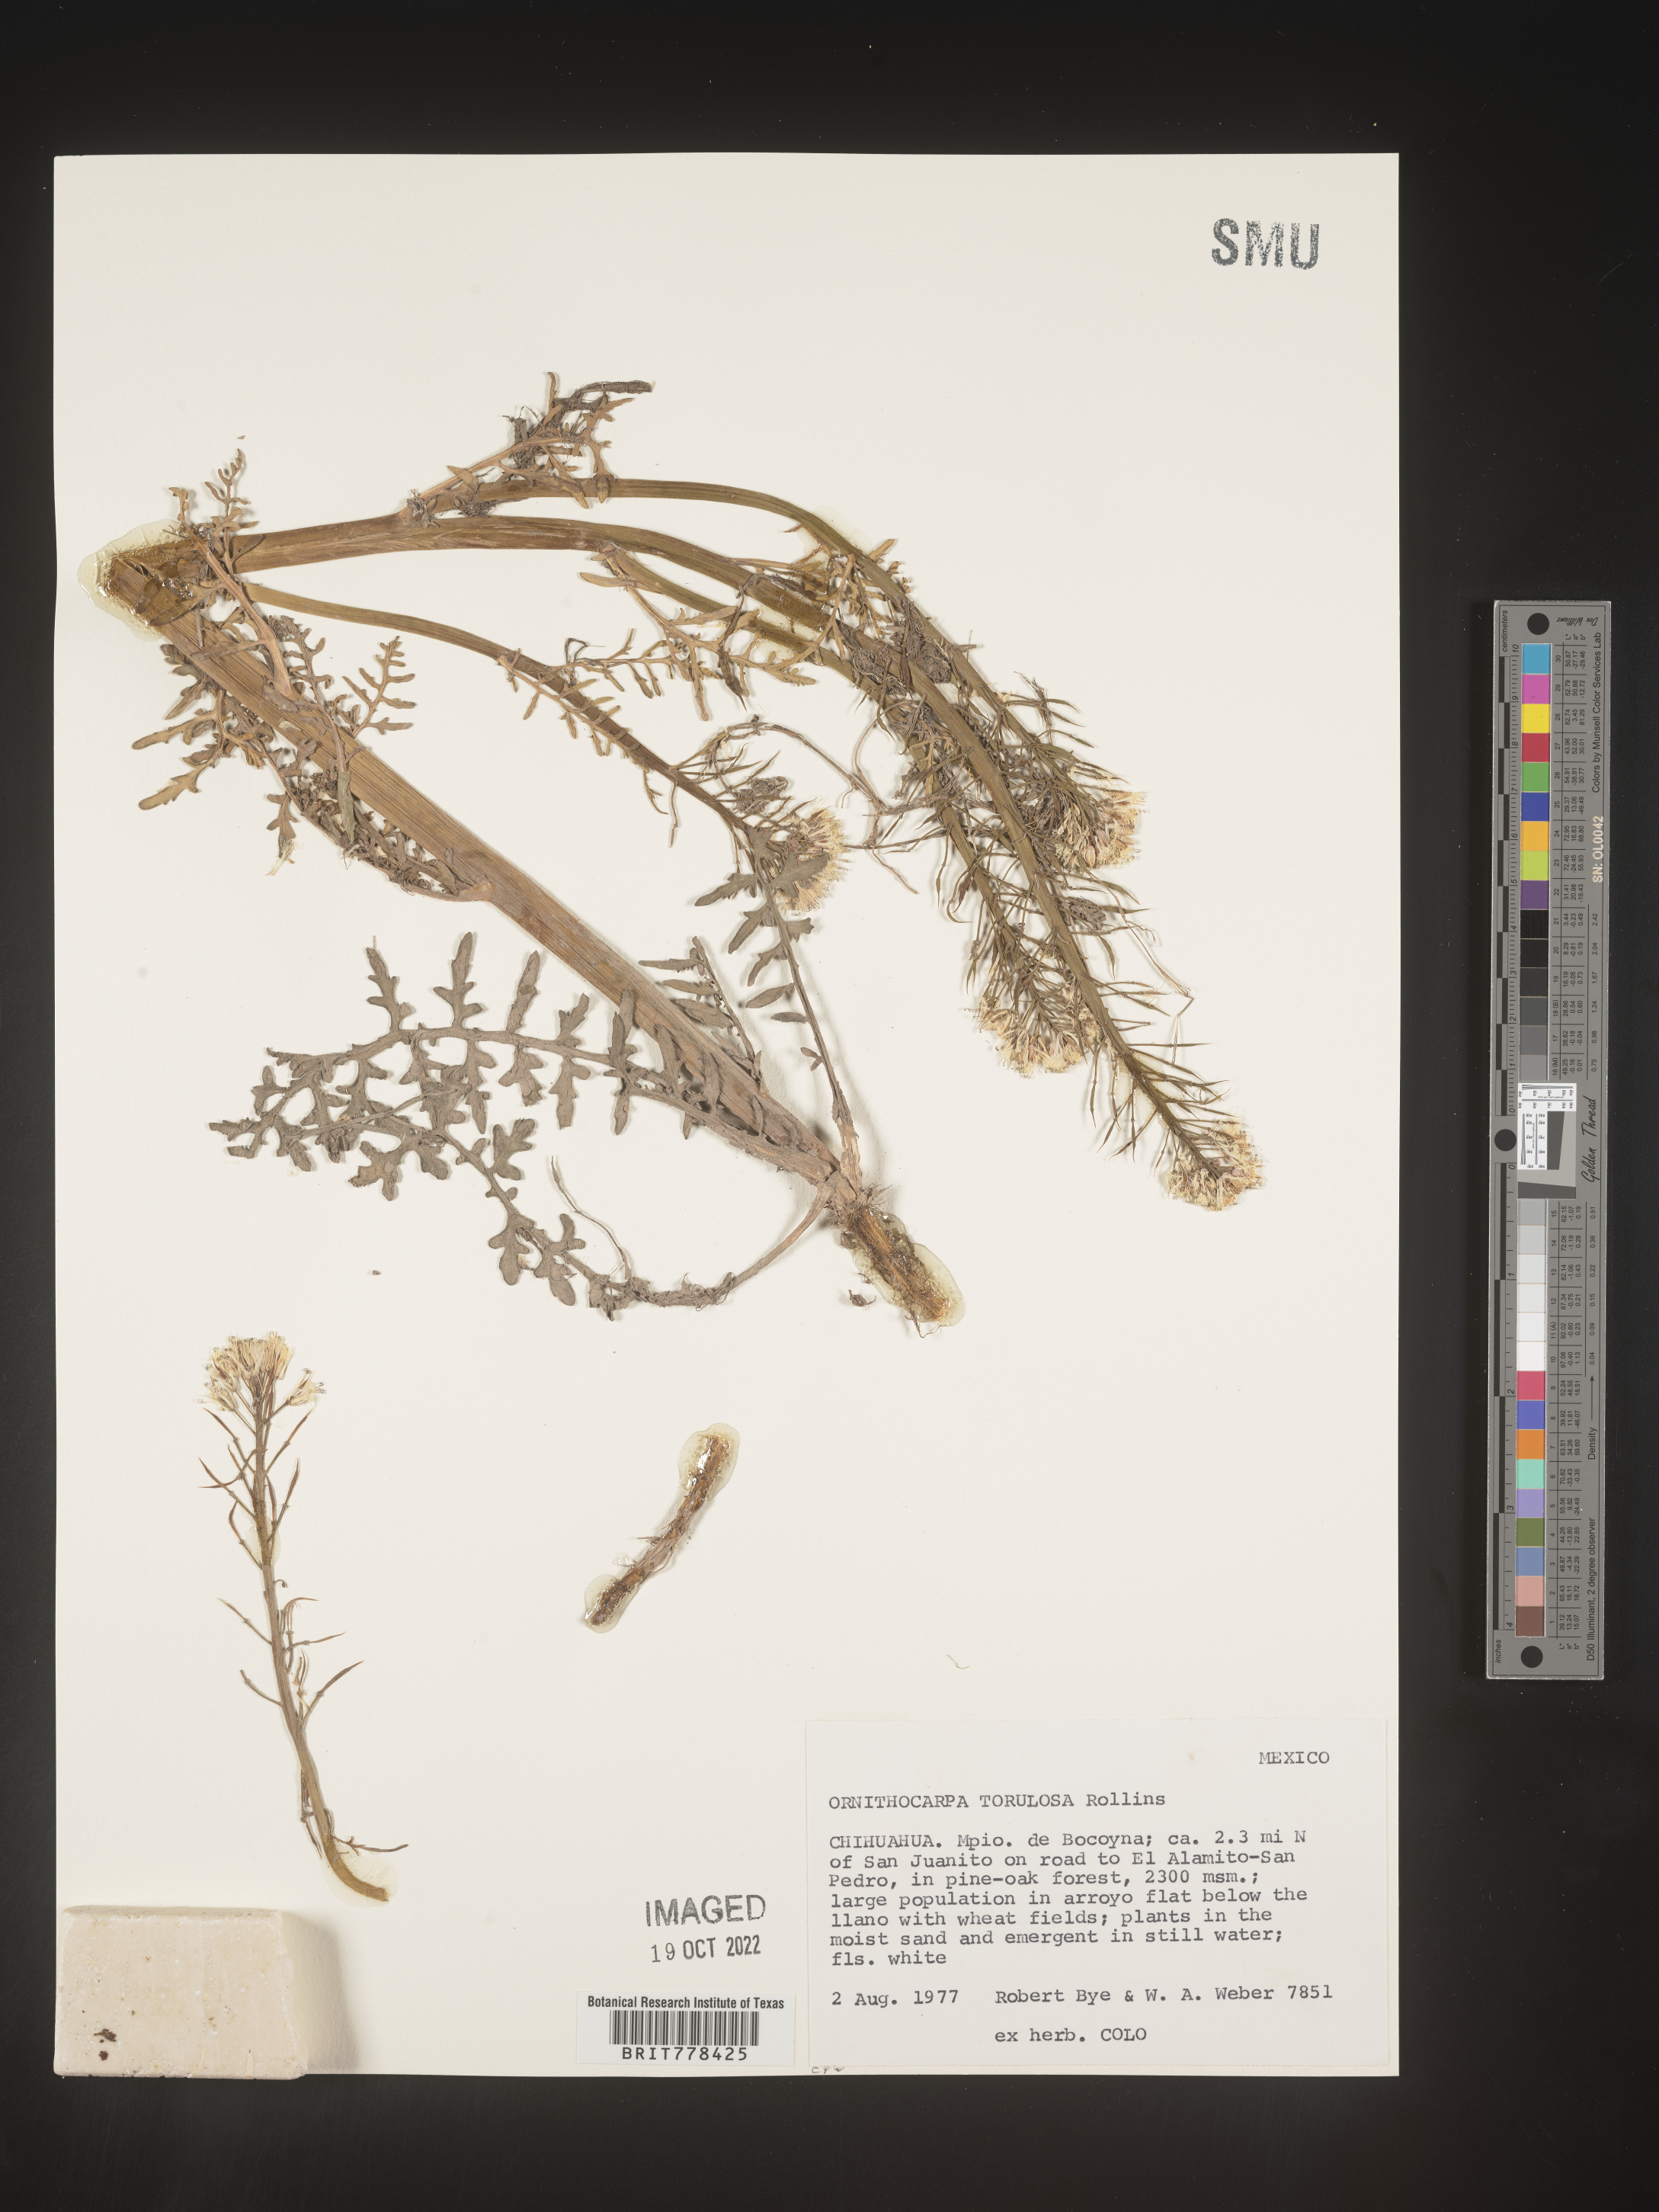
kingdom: Plantae
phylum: Tracheophyta
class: Magnoliopsida
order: Brassicales
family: Brassicaceae
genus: Ornithocarpa
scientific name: Ornithocarpa torulosa
